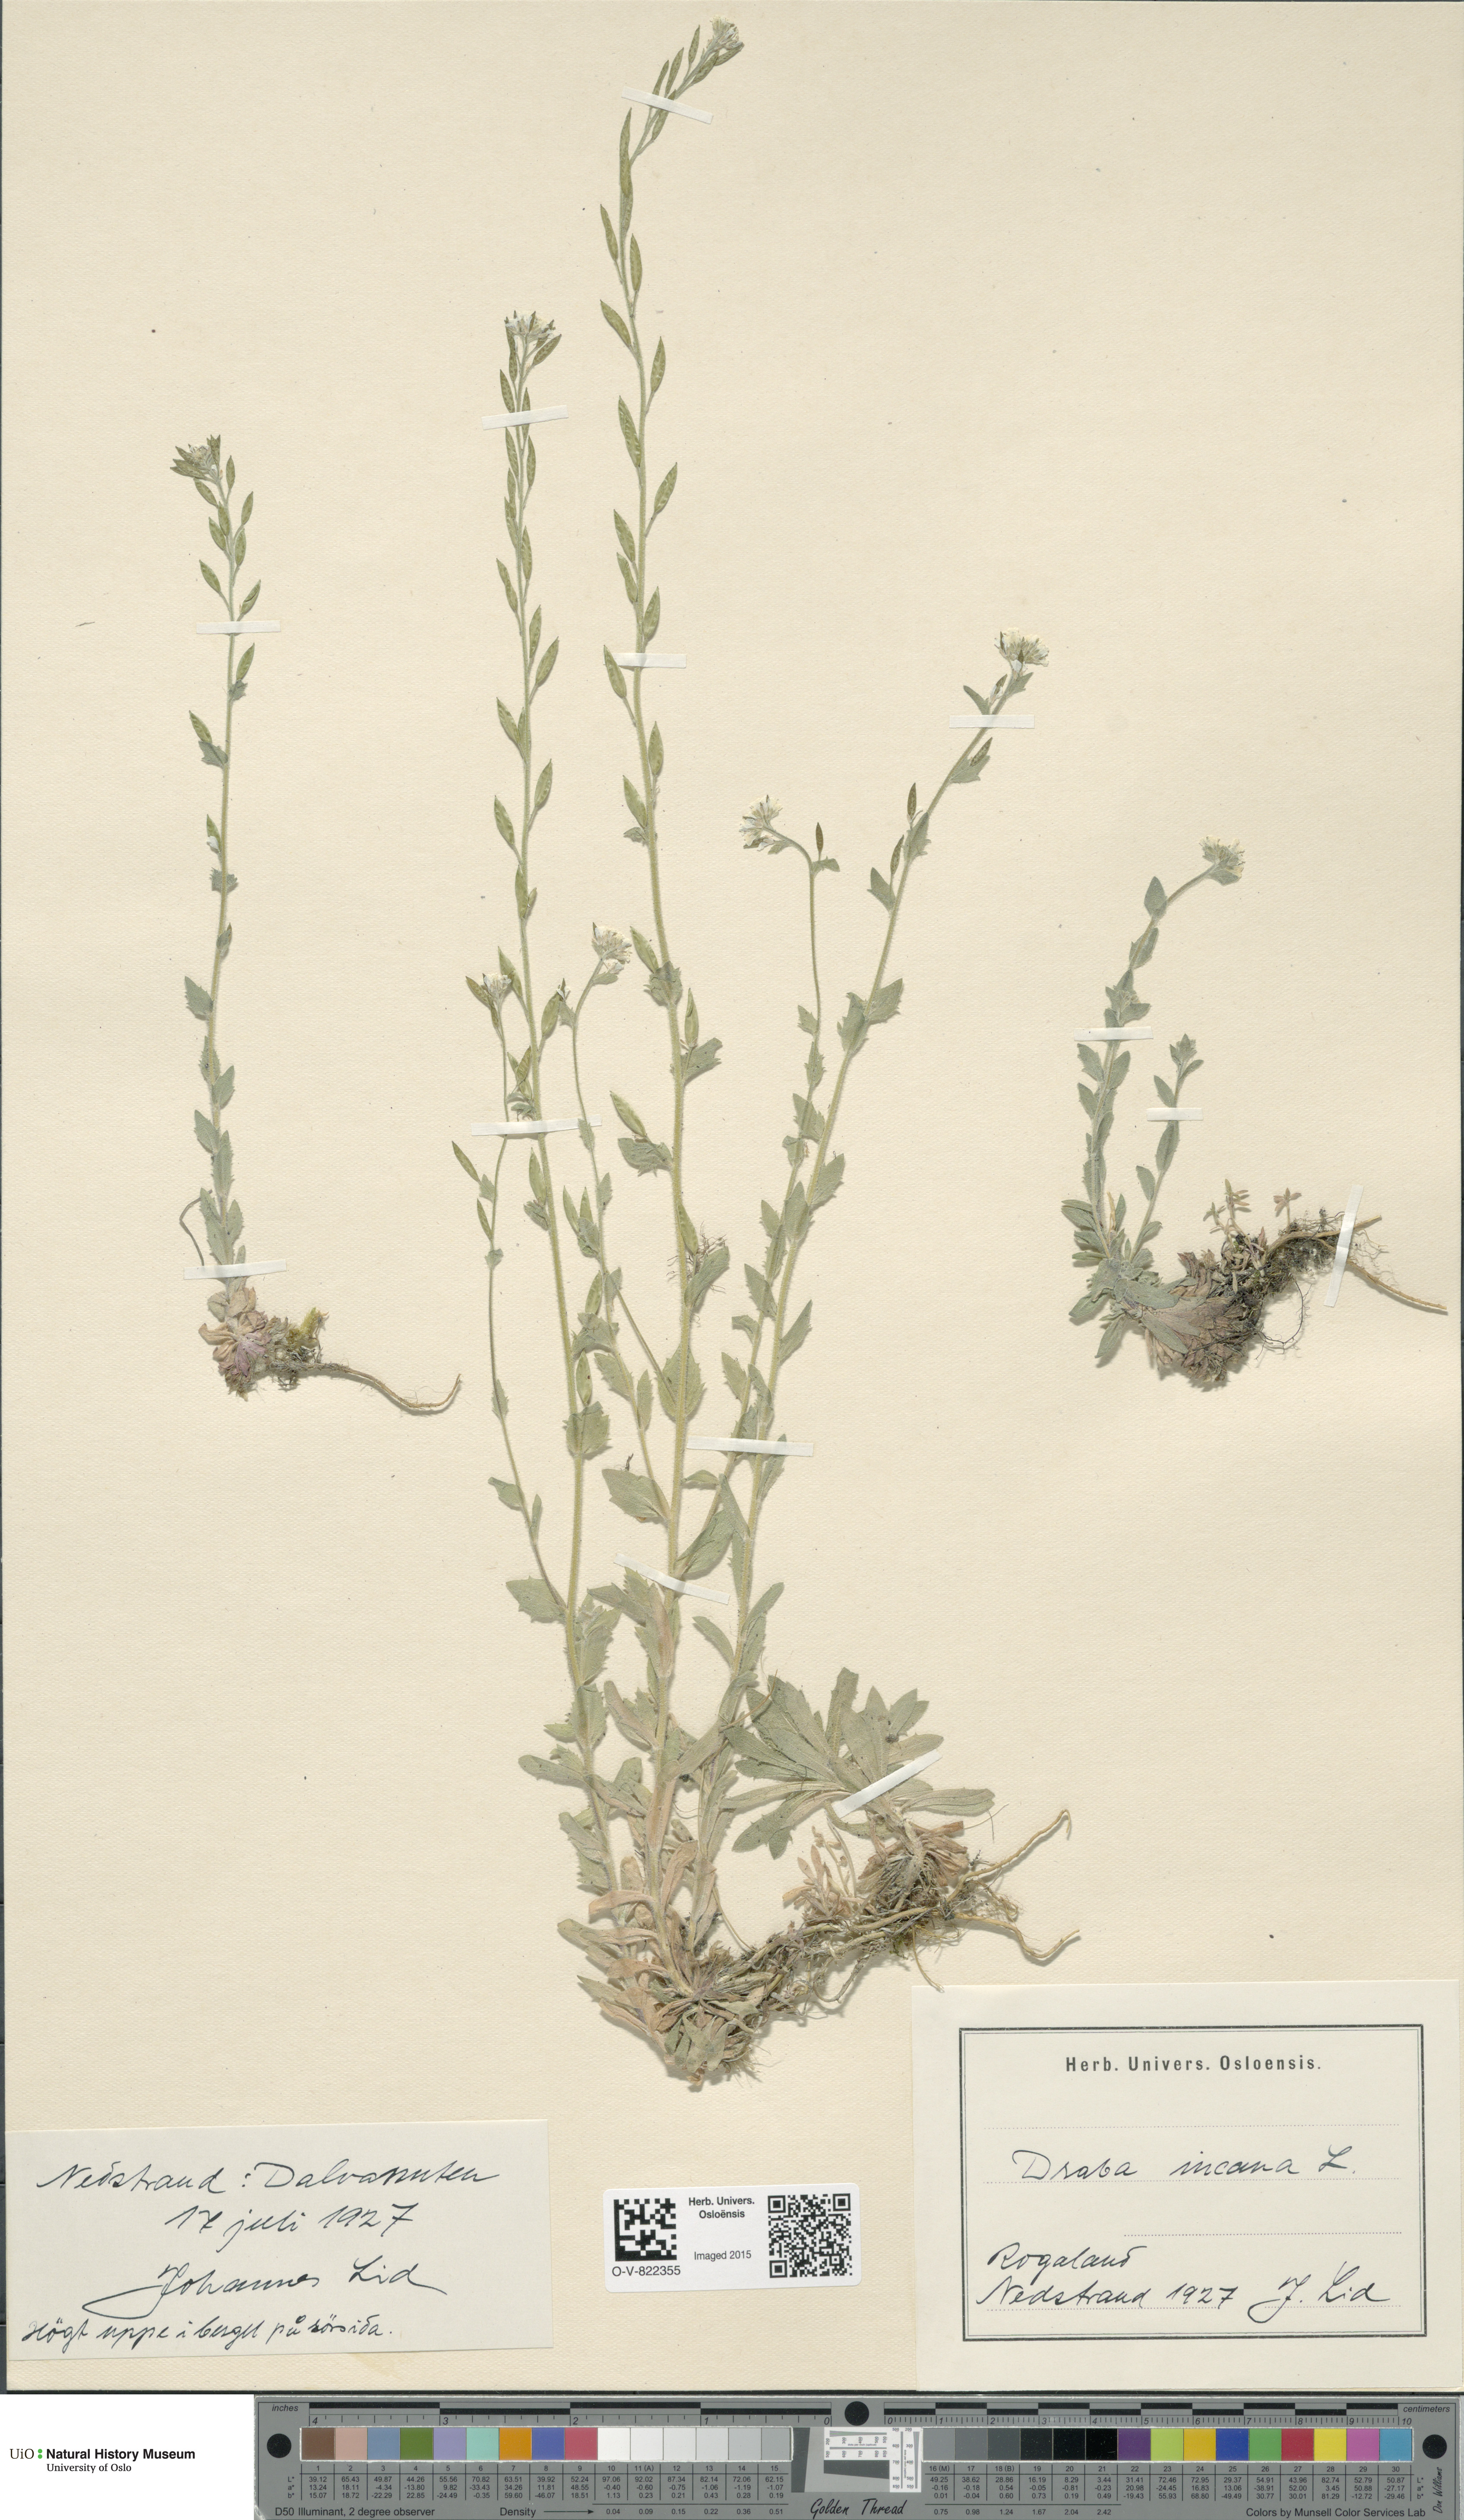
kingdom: Plantae
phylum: Tracheophyta
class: Magnoliopsida
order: Brassicales
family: Brassicaceae
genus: Draba
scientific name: Draba incana
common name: Hoary whitlow-grass
